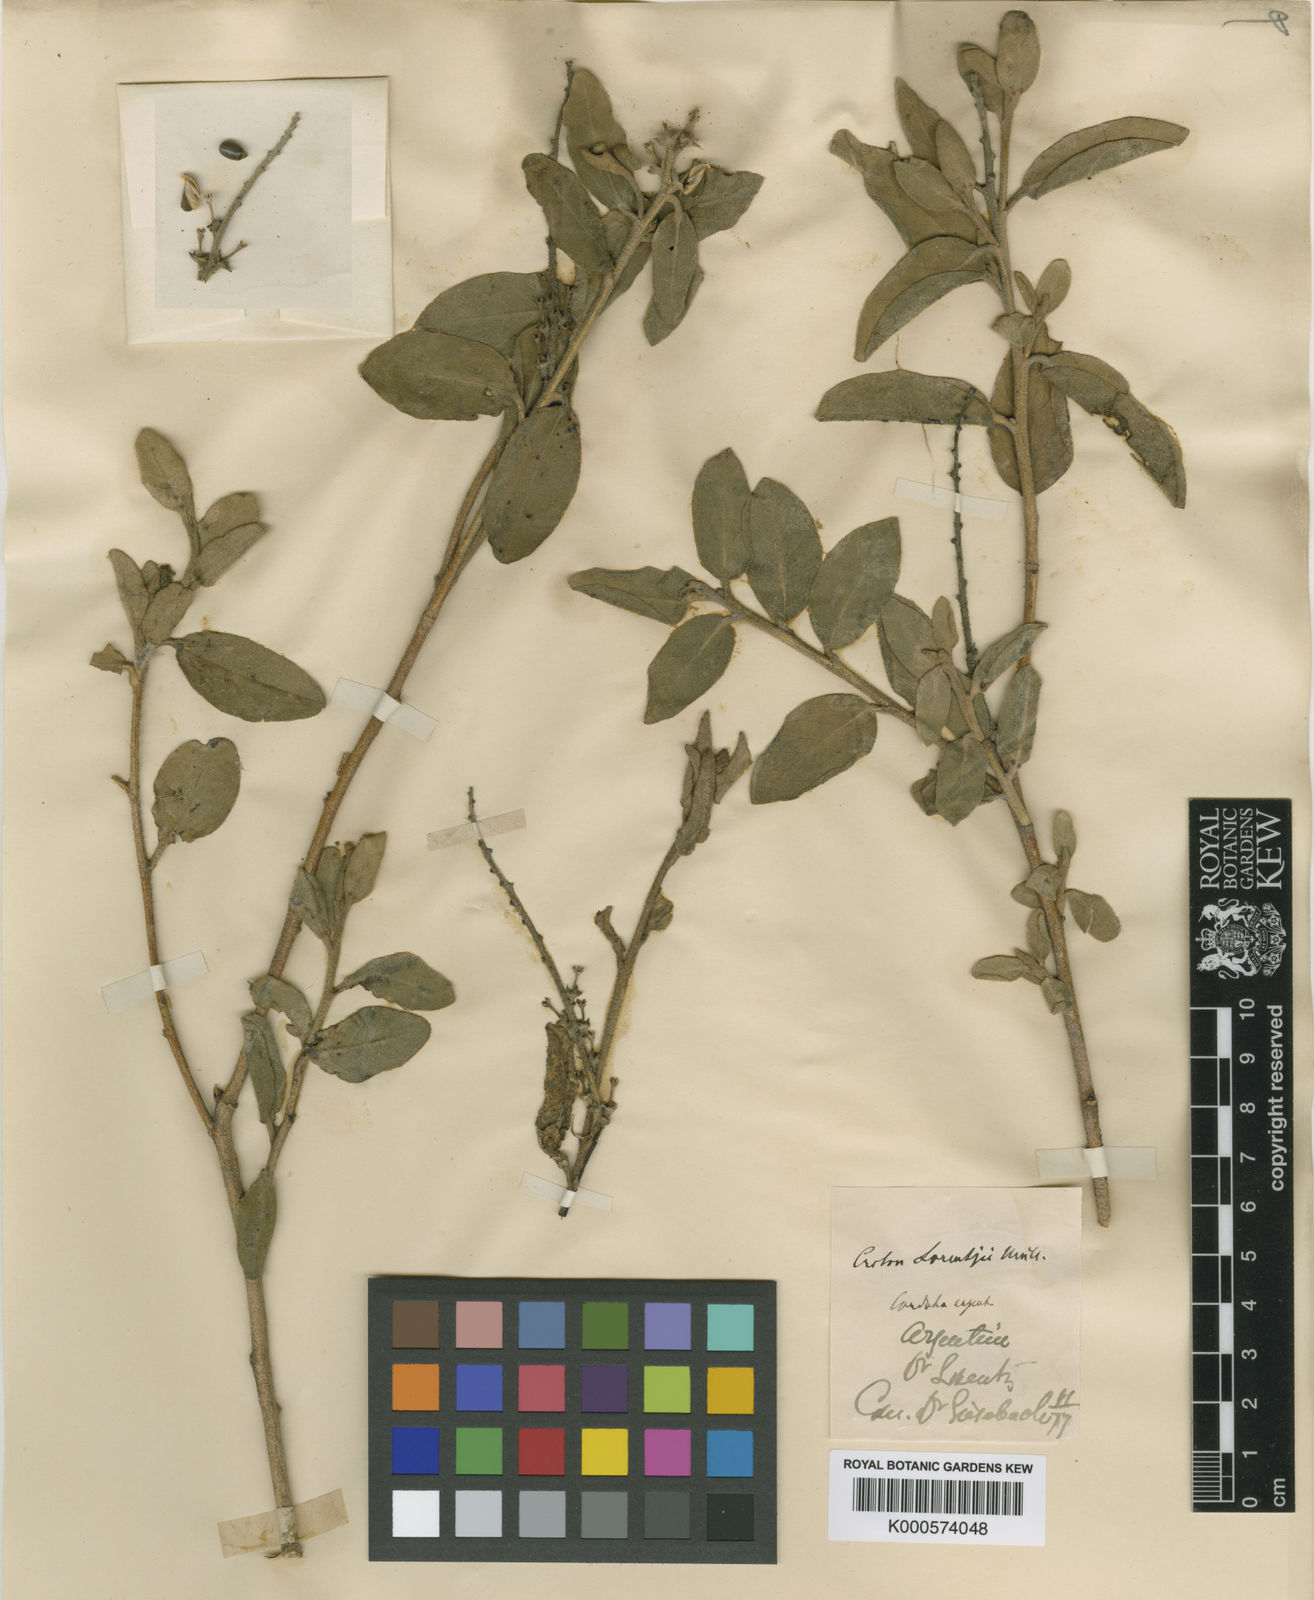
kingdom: Plantae
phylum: Tracheophyta
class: Magnoliopsida
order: Malpighiales
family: Euphorbiaceae
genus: Croton
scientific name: Croton
